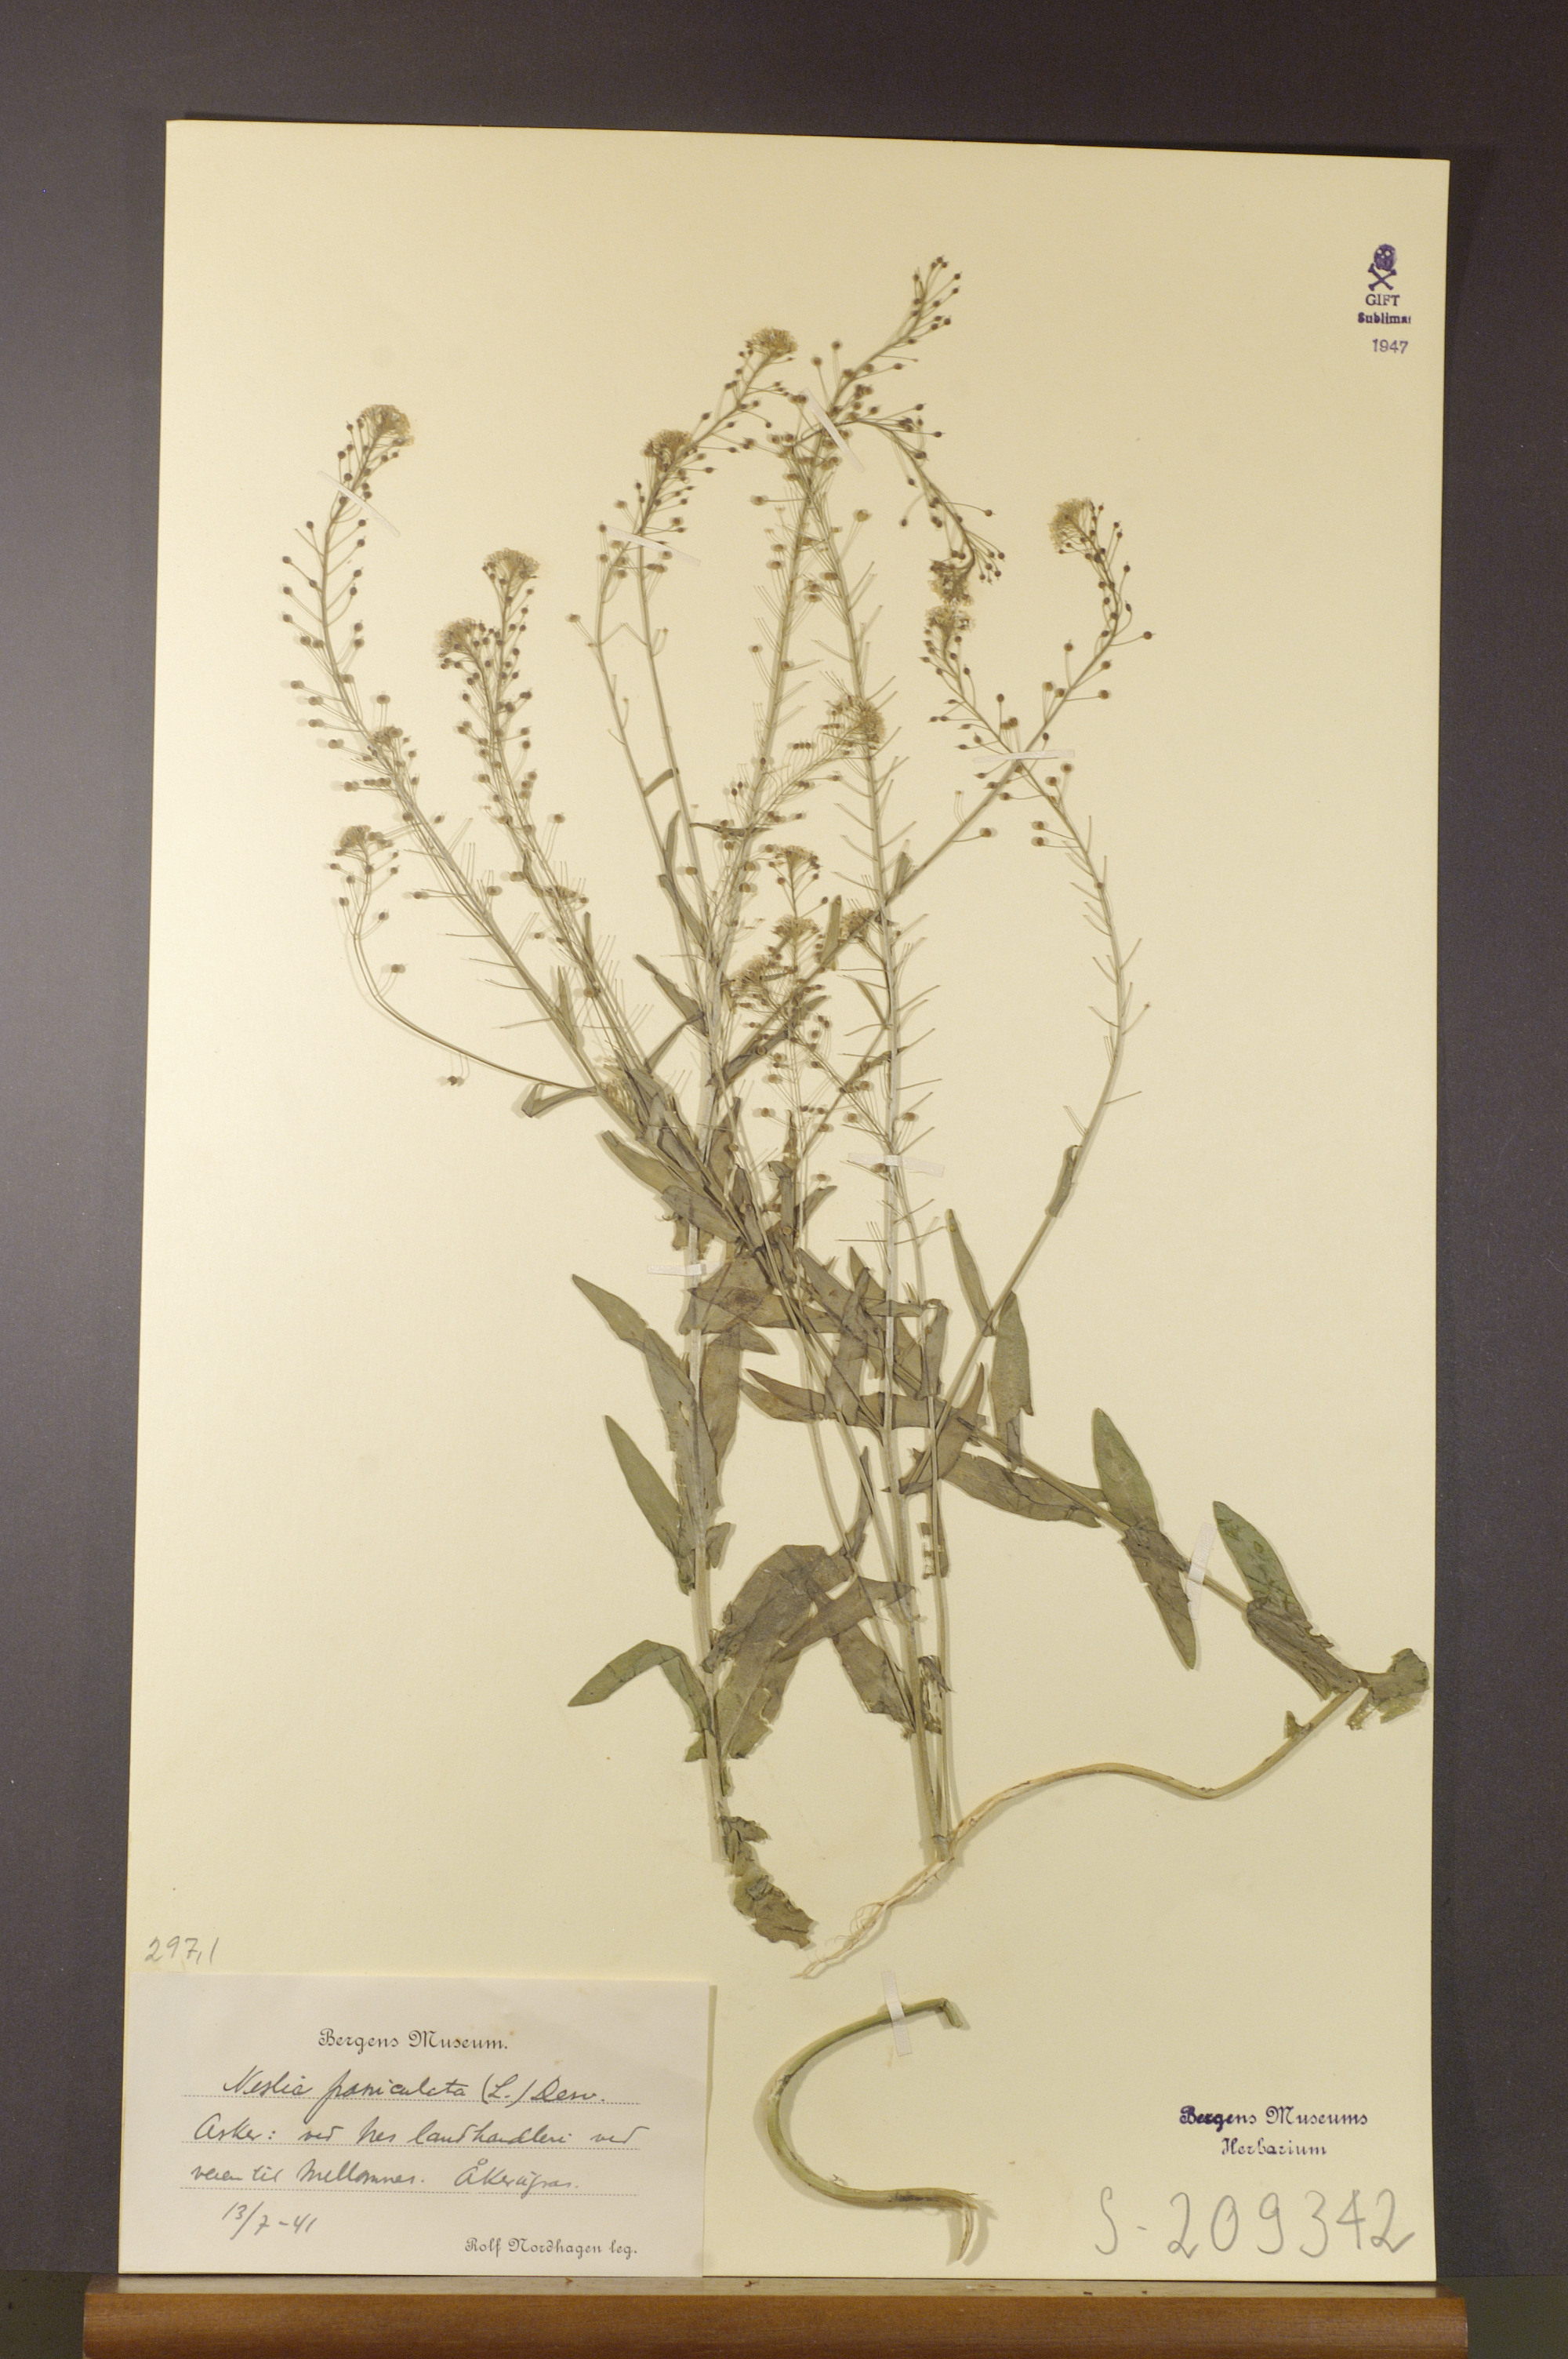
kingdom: Plantae
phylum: Tracheophyta
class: Magnoliopsida
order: Brassicales
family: Brassicaceae
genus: Neslia
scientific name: Neslia paniculata
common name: Ball mustard
